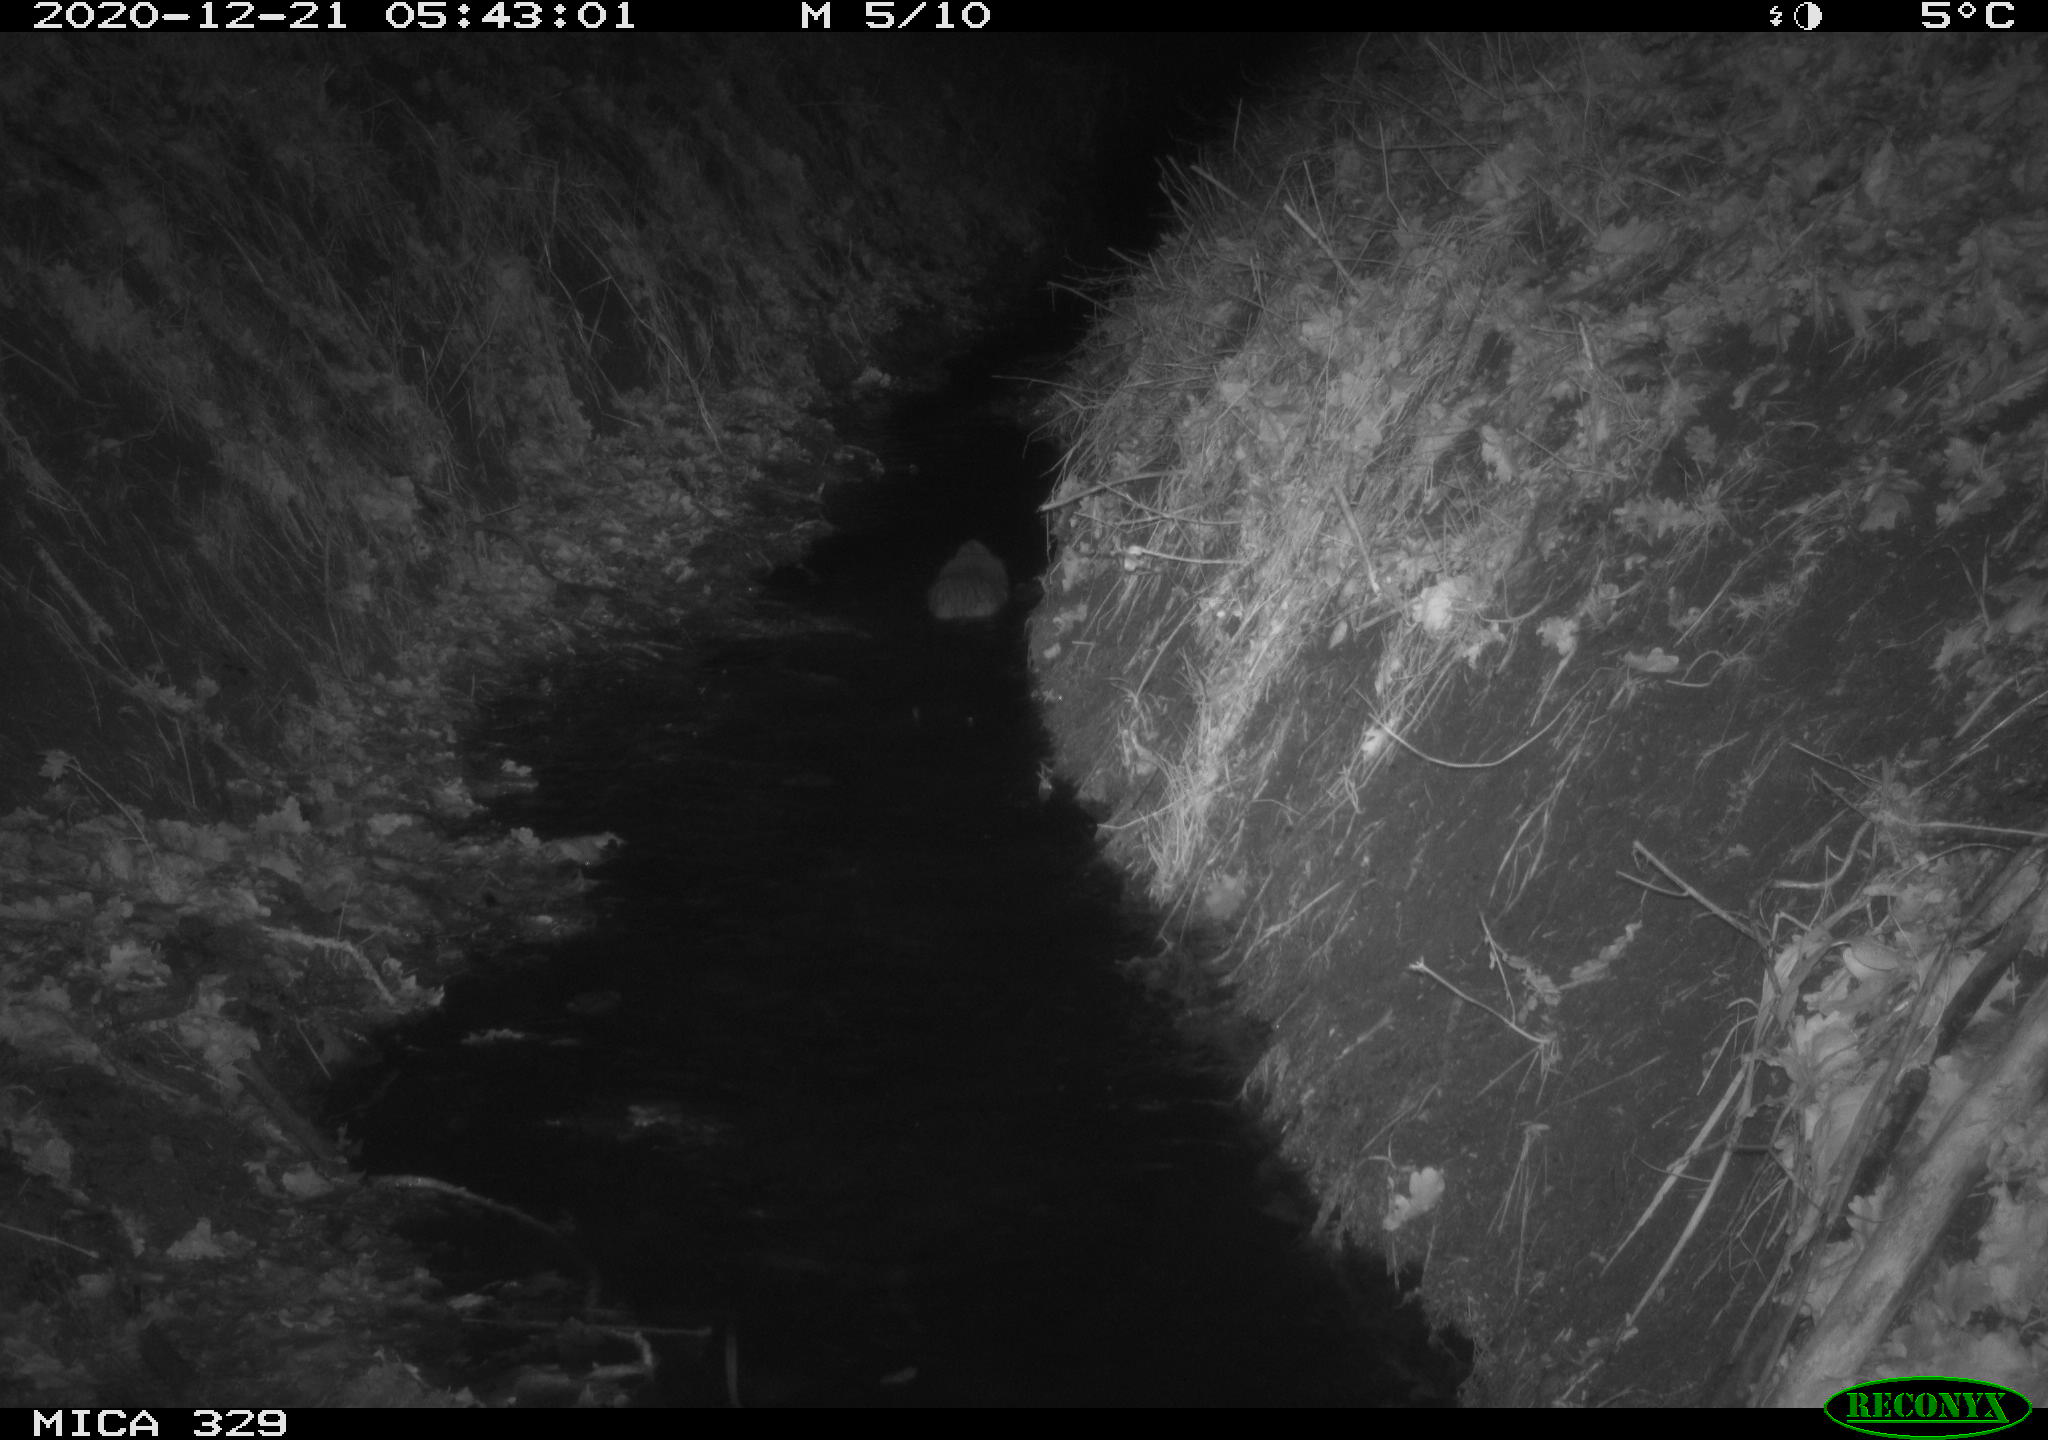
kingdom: Animalia
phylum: Chordata
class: Mammalia
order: Rodentia
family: Cricetidae
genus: Ondatra
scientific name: Ondatra zibethicus
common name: Muskrat
